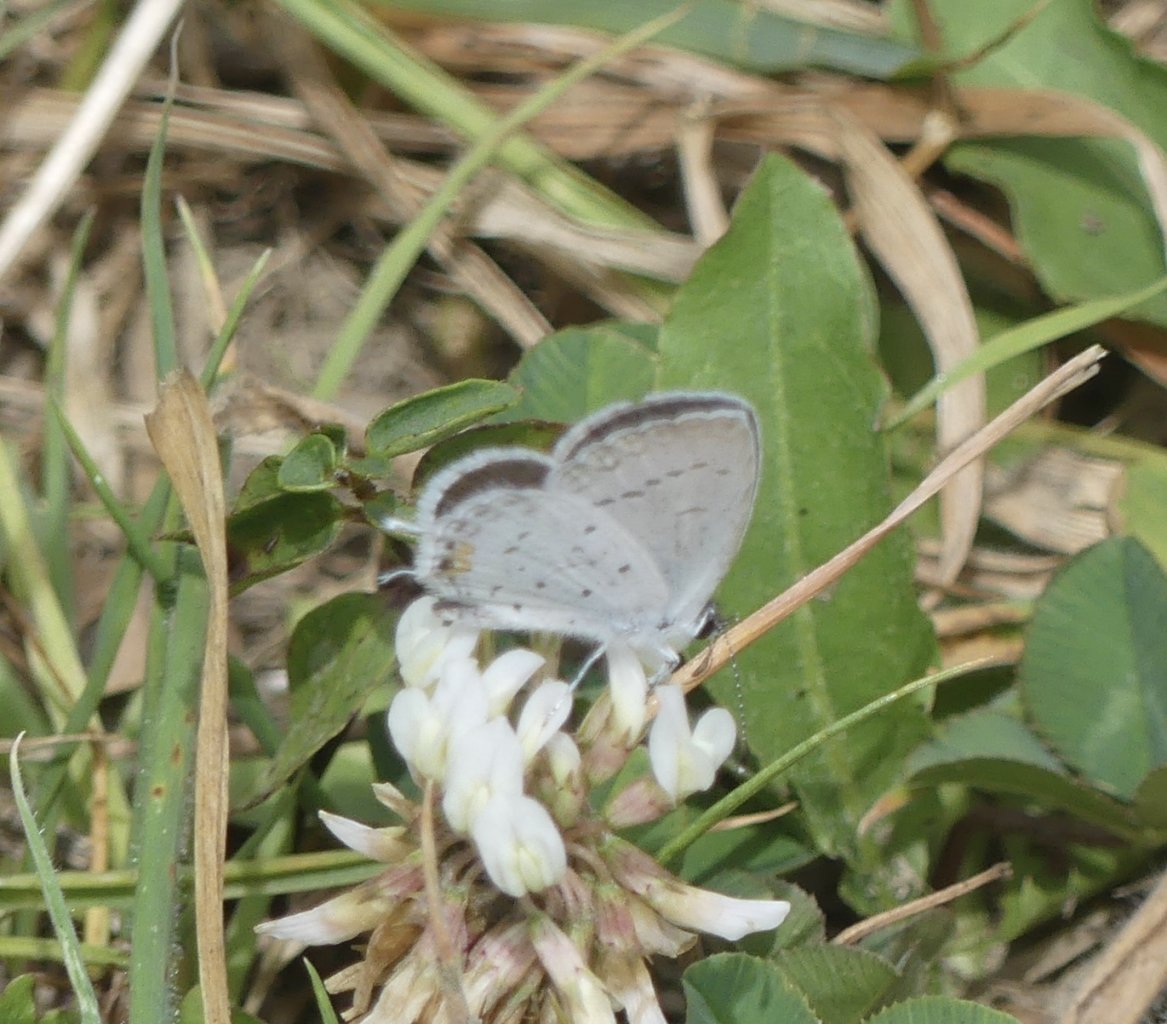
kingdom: Animalia
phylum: Arthropoda
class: Insecta
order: Lepidoptera
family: Lycaenidae
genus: Elkalyce
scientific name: Elkalyce comyntas
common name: Eastern Tailed-Blue
